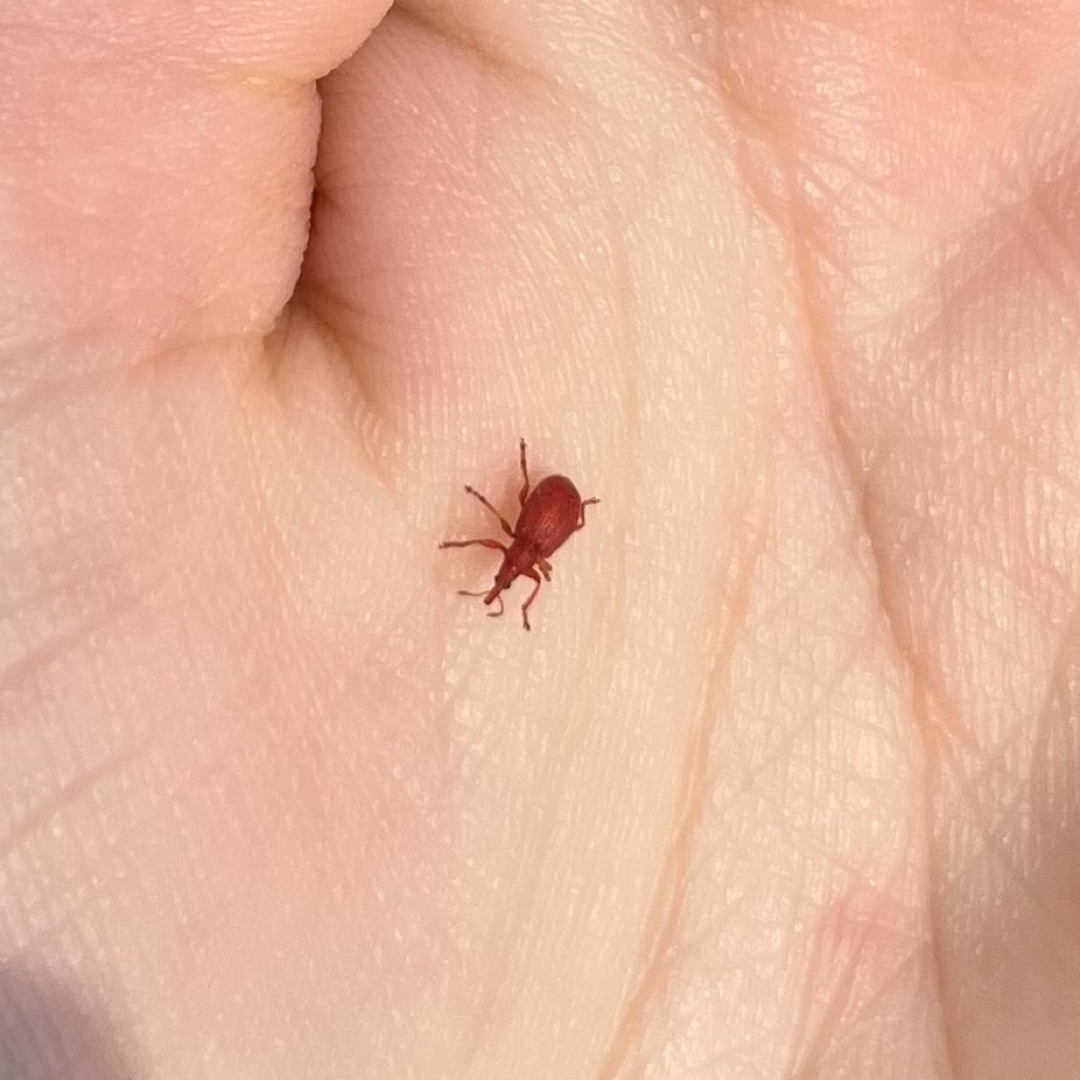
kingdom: Animalia
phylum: Arthropoda
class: Insecta
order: Coleoptera
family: Apionidae
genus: Apion
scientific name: Apion frumentarium
